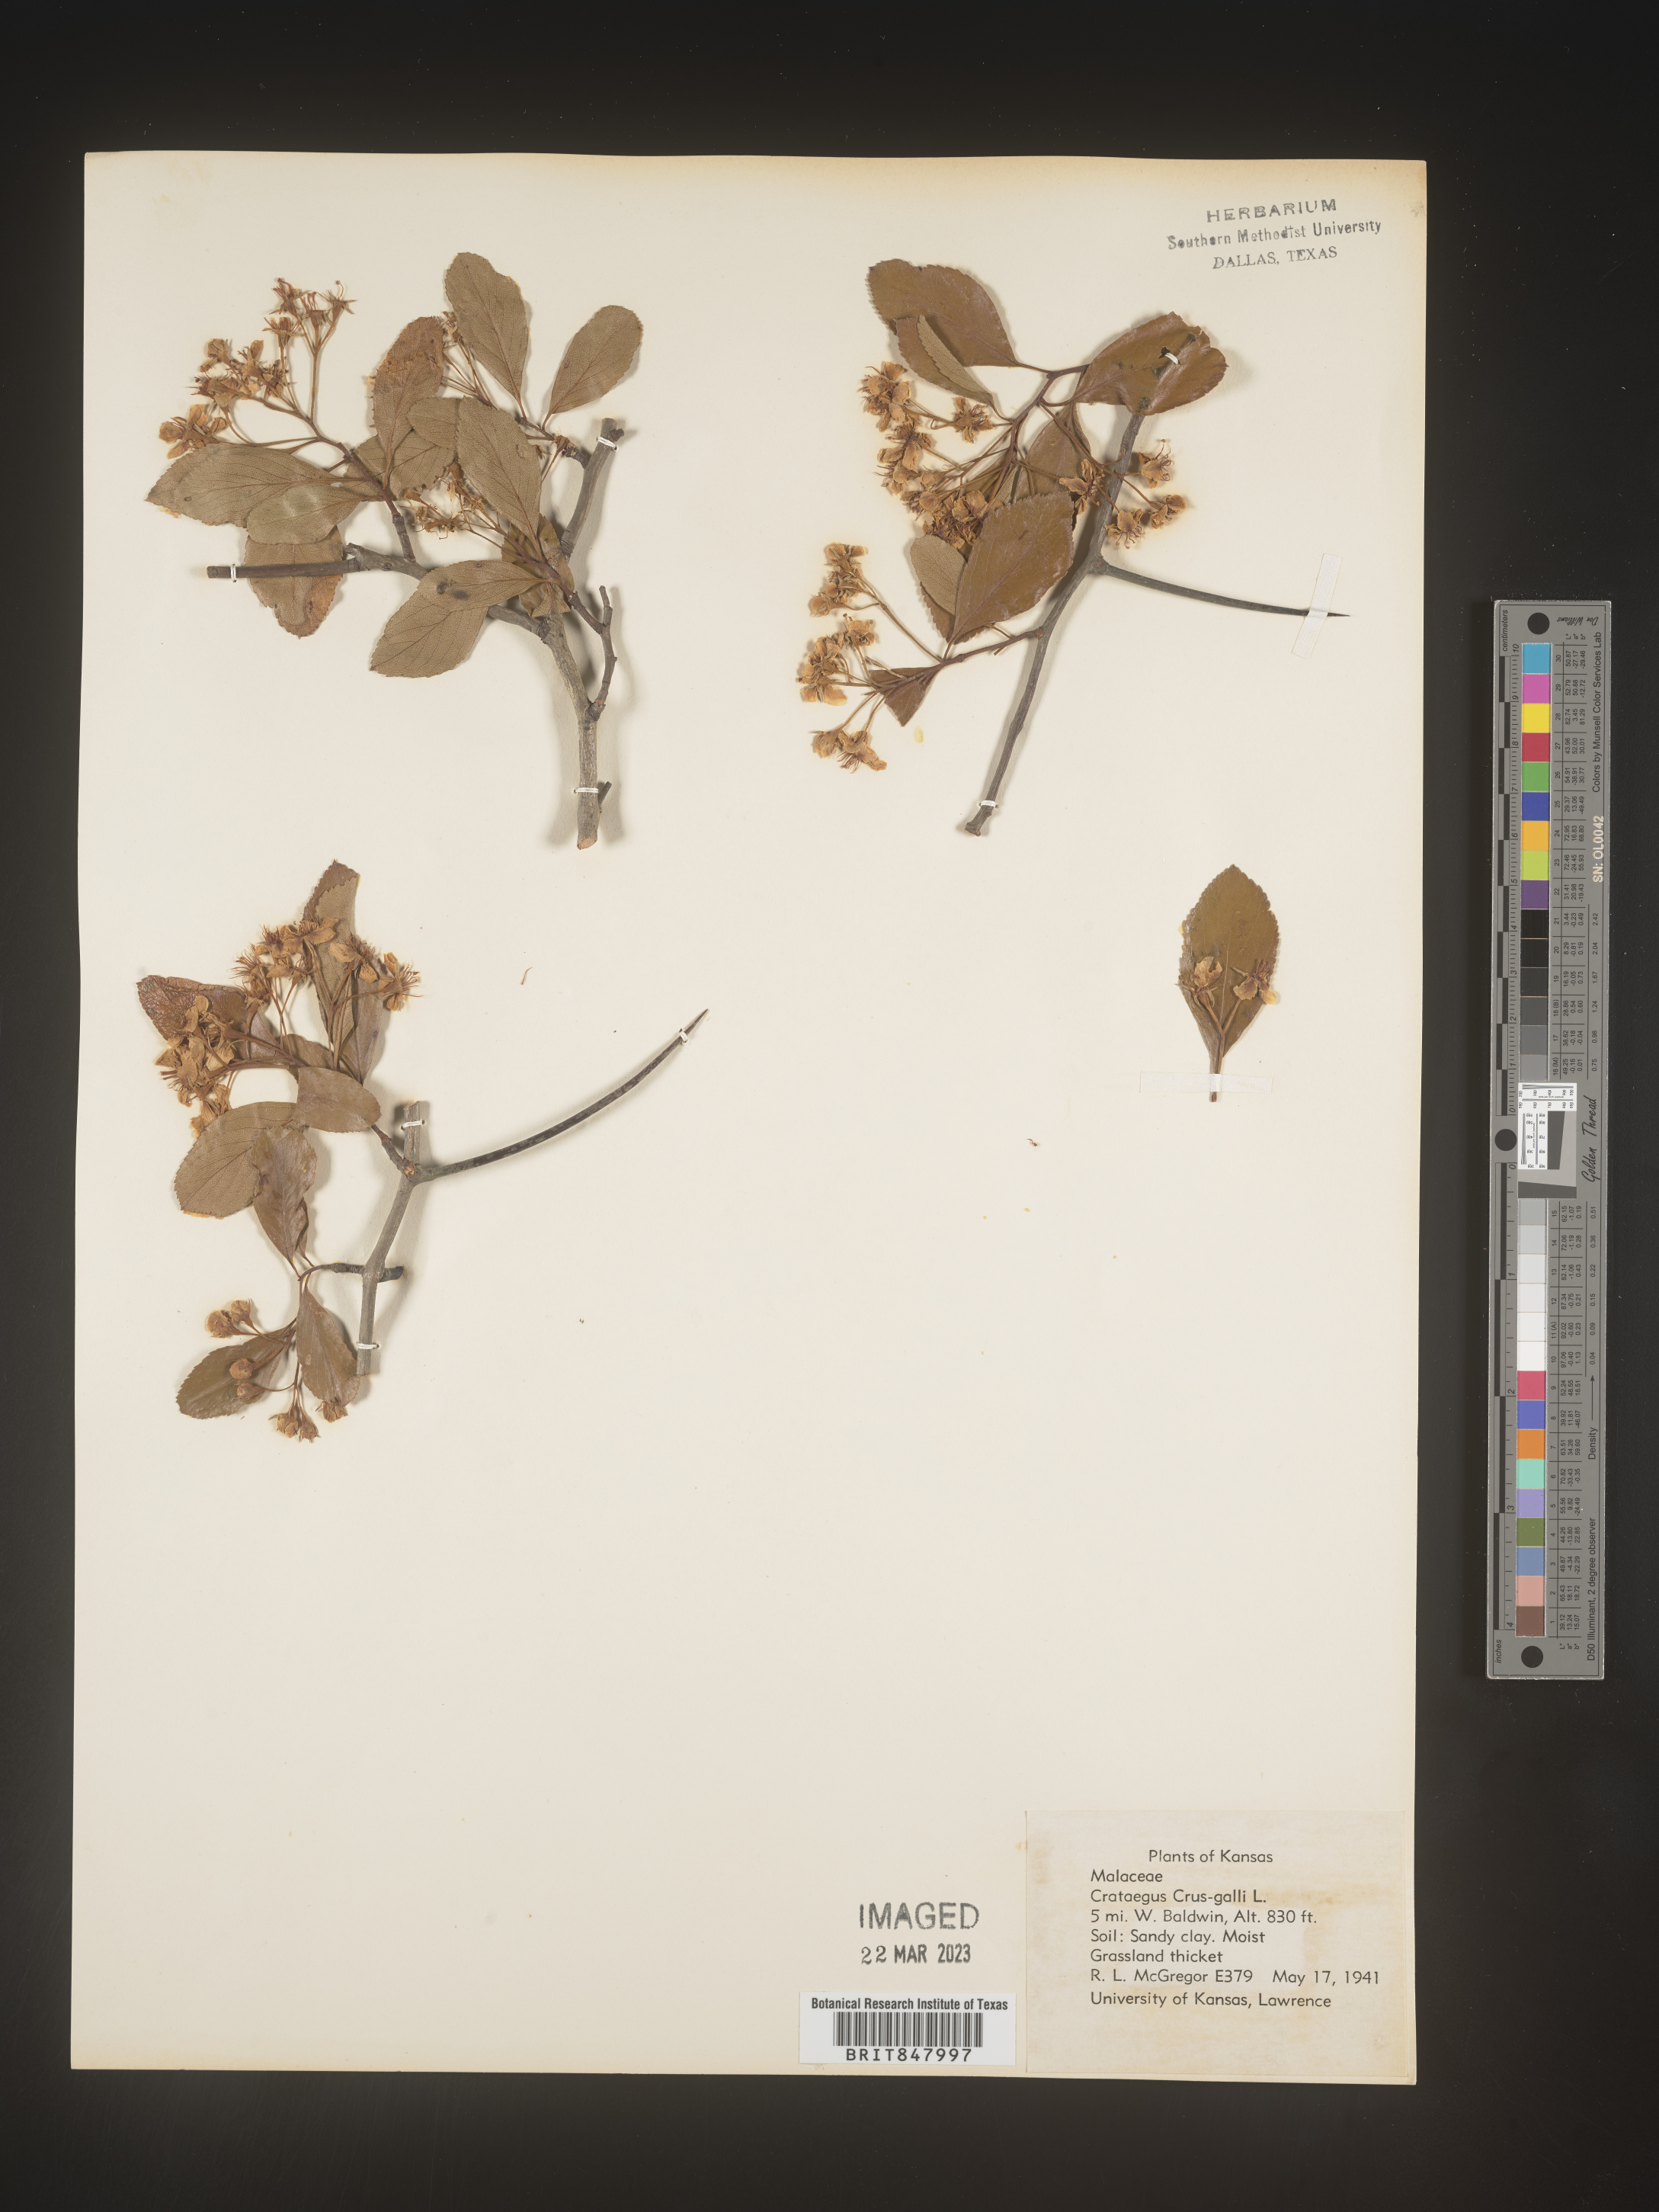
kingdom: Plantae
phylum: Tracheophyta
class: Magnoliopsida
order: Rosales
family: Rosaceae
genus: Crataegus
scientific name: Crataegus crus-galli
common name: Cockspurthorn
